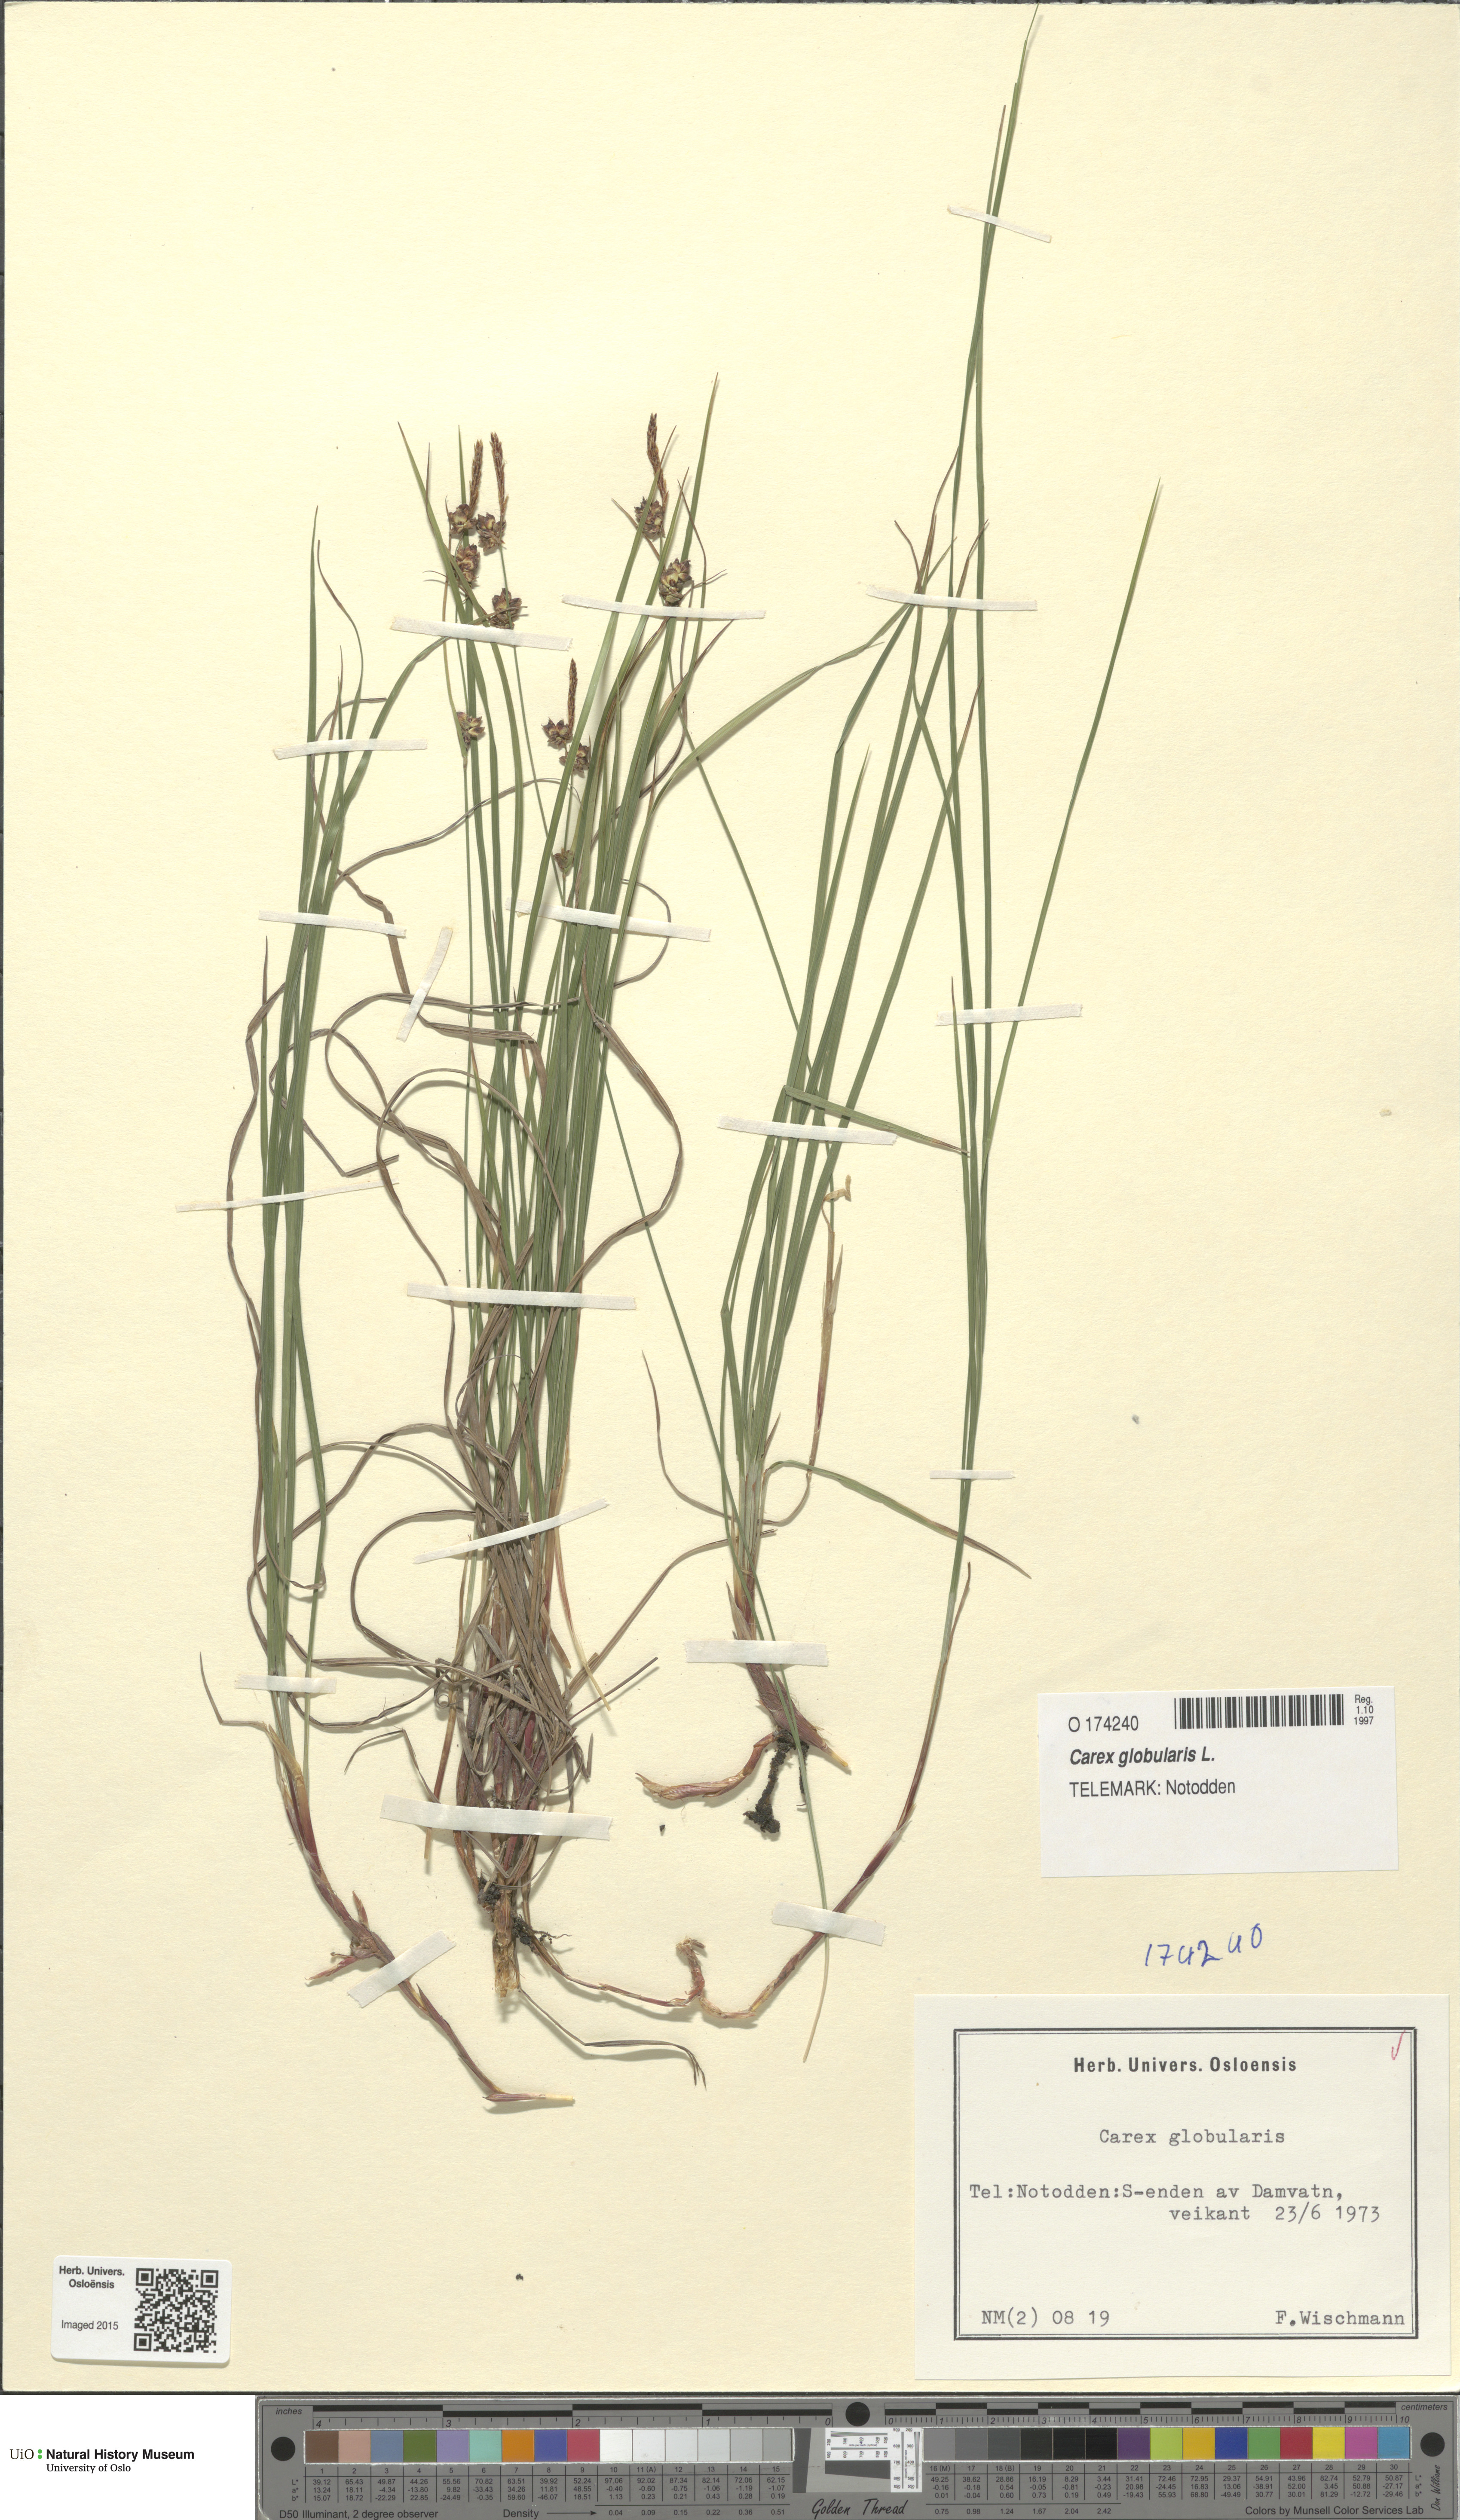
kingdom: Plantae
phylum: Tracheophyta
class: Liliopsida
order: Poales
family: Cyperaceae
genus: Carex
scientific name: Carex globularis
